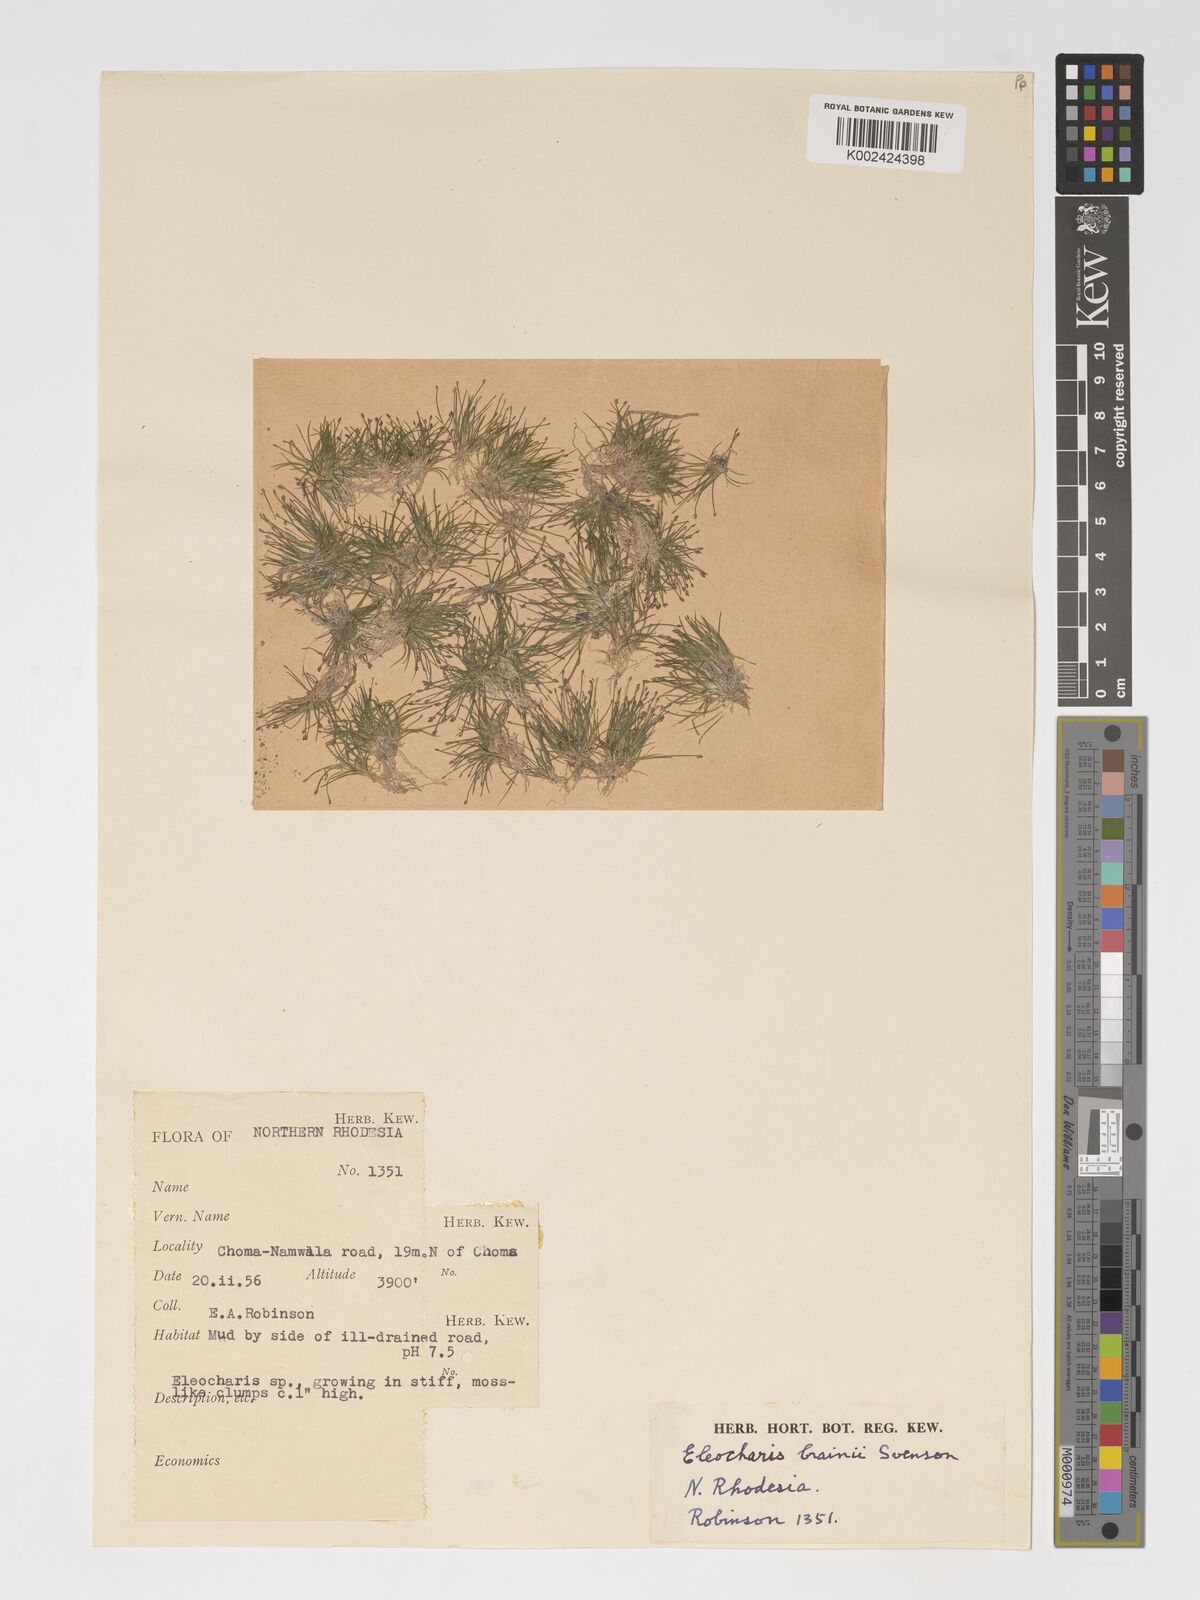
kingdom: Plantae
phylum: Tracheophyta
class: Liliopsida
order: Poales
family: Cyperaceae
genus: Eleocharis
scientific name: Eleocharis brainii
